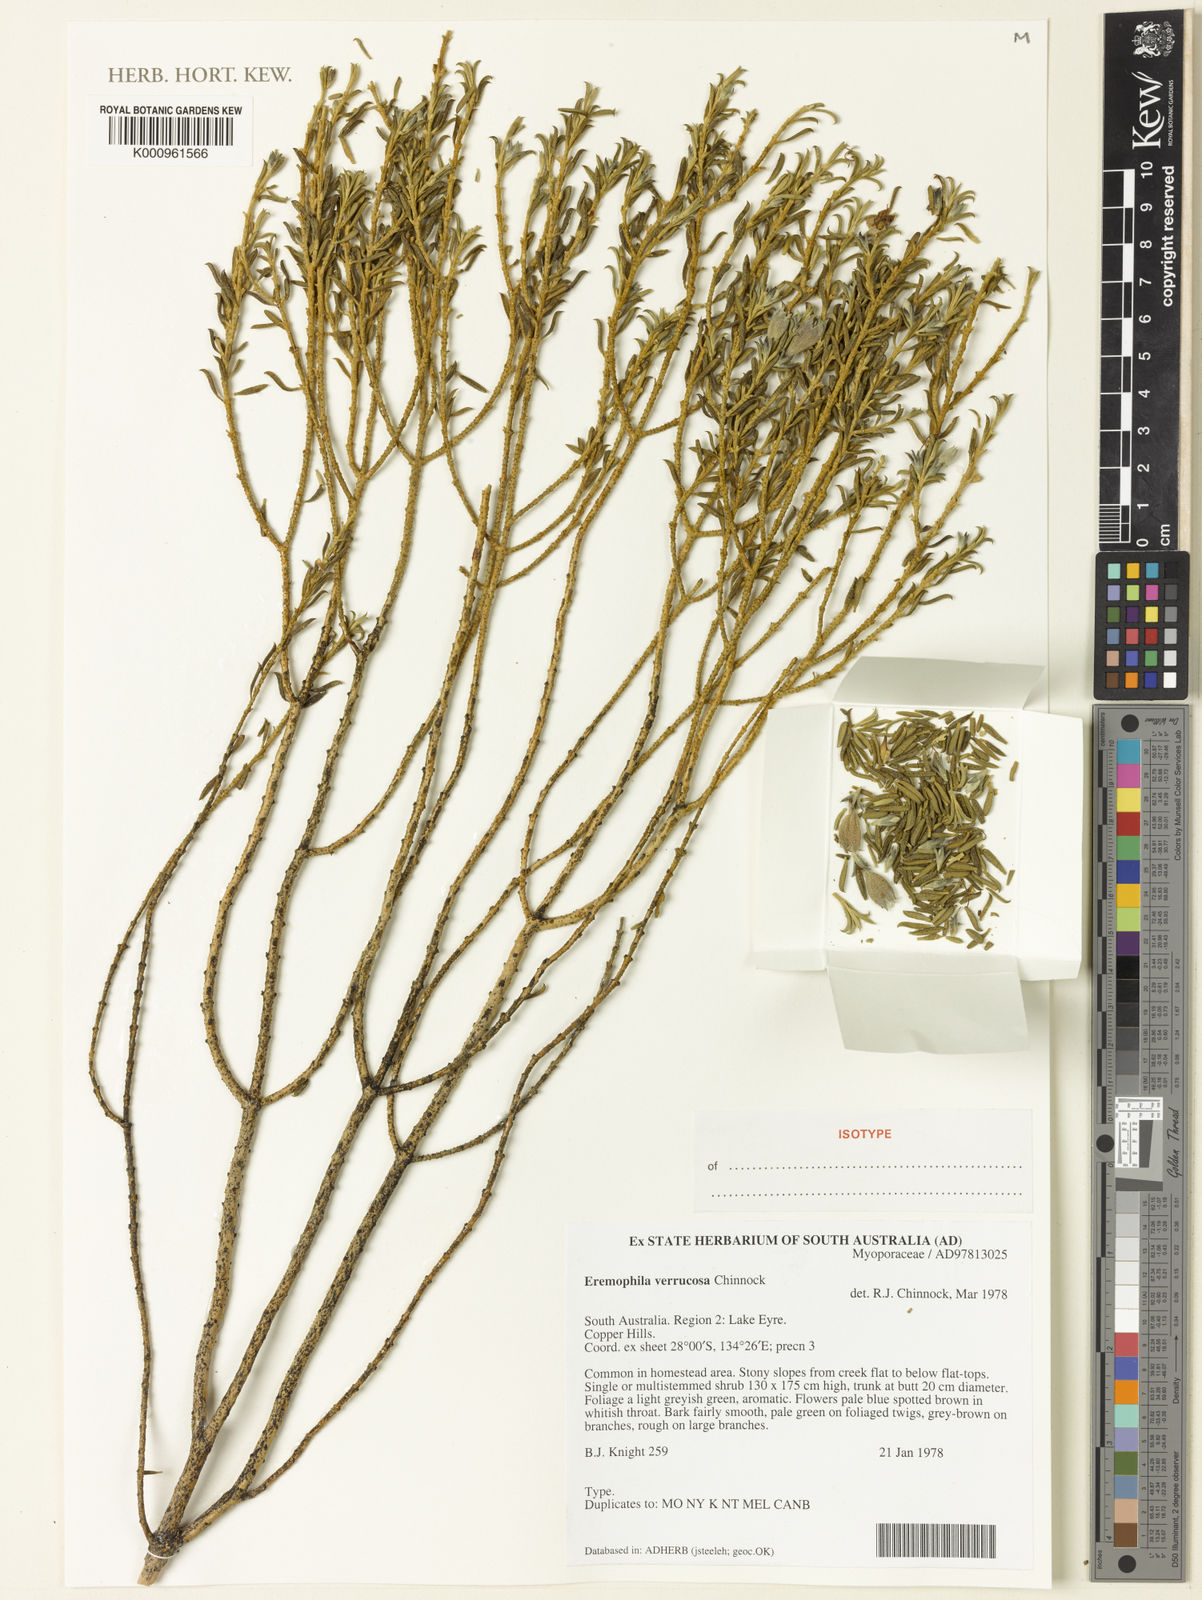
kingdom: Plantae
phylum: Tracheophyta
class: Magnoliopsida
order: Lamiales
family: Scrophulariaceae
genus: Eremophila
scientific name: Eremophila verrucosa
